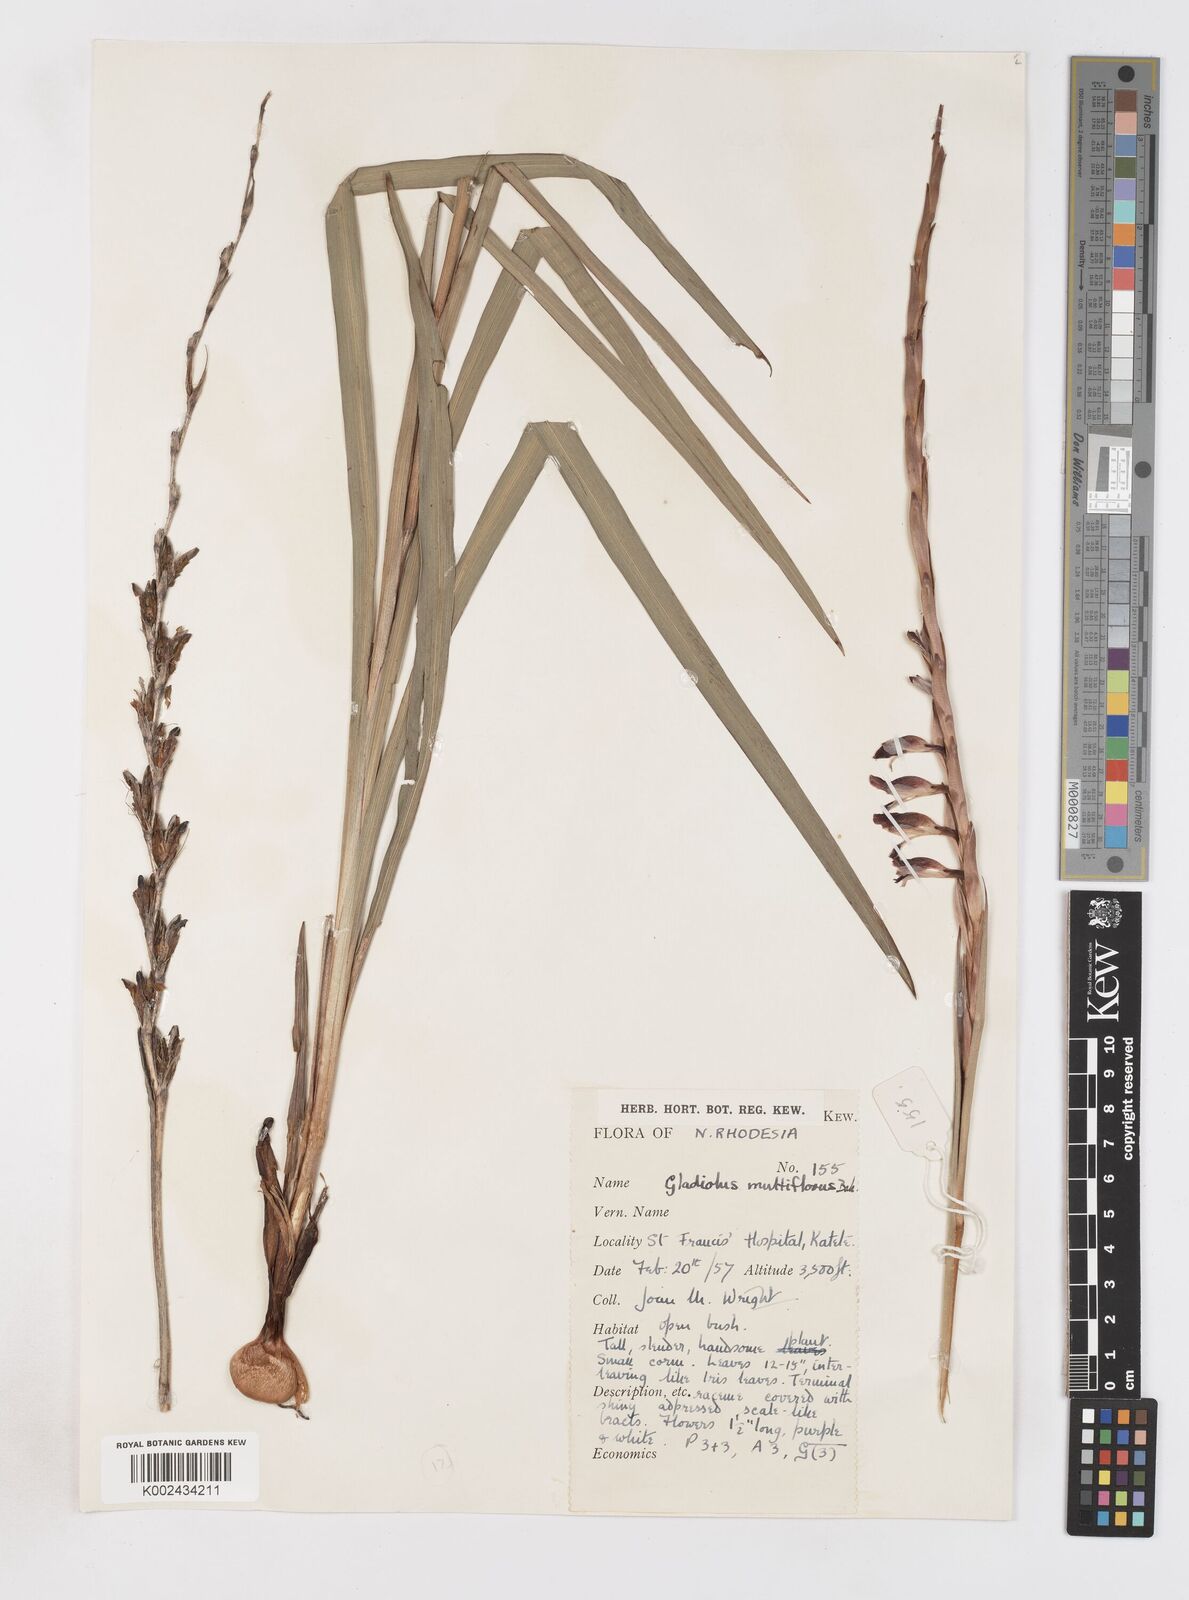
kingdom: Plantae
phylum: Tracheophyta
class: Liliopsida
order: Asparagales
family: Iridaceae
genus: Gladiolus
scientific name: Gladiolus gregarius
